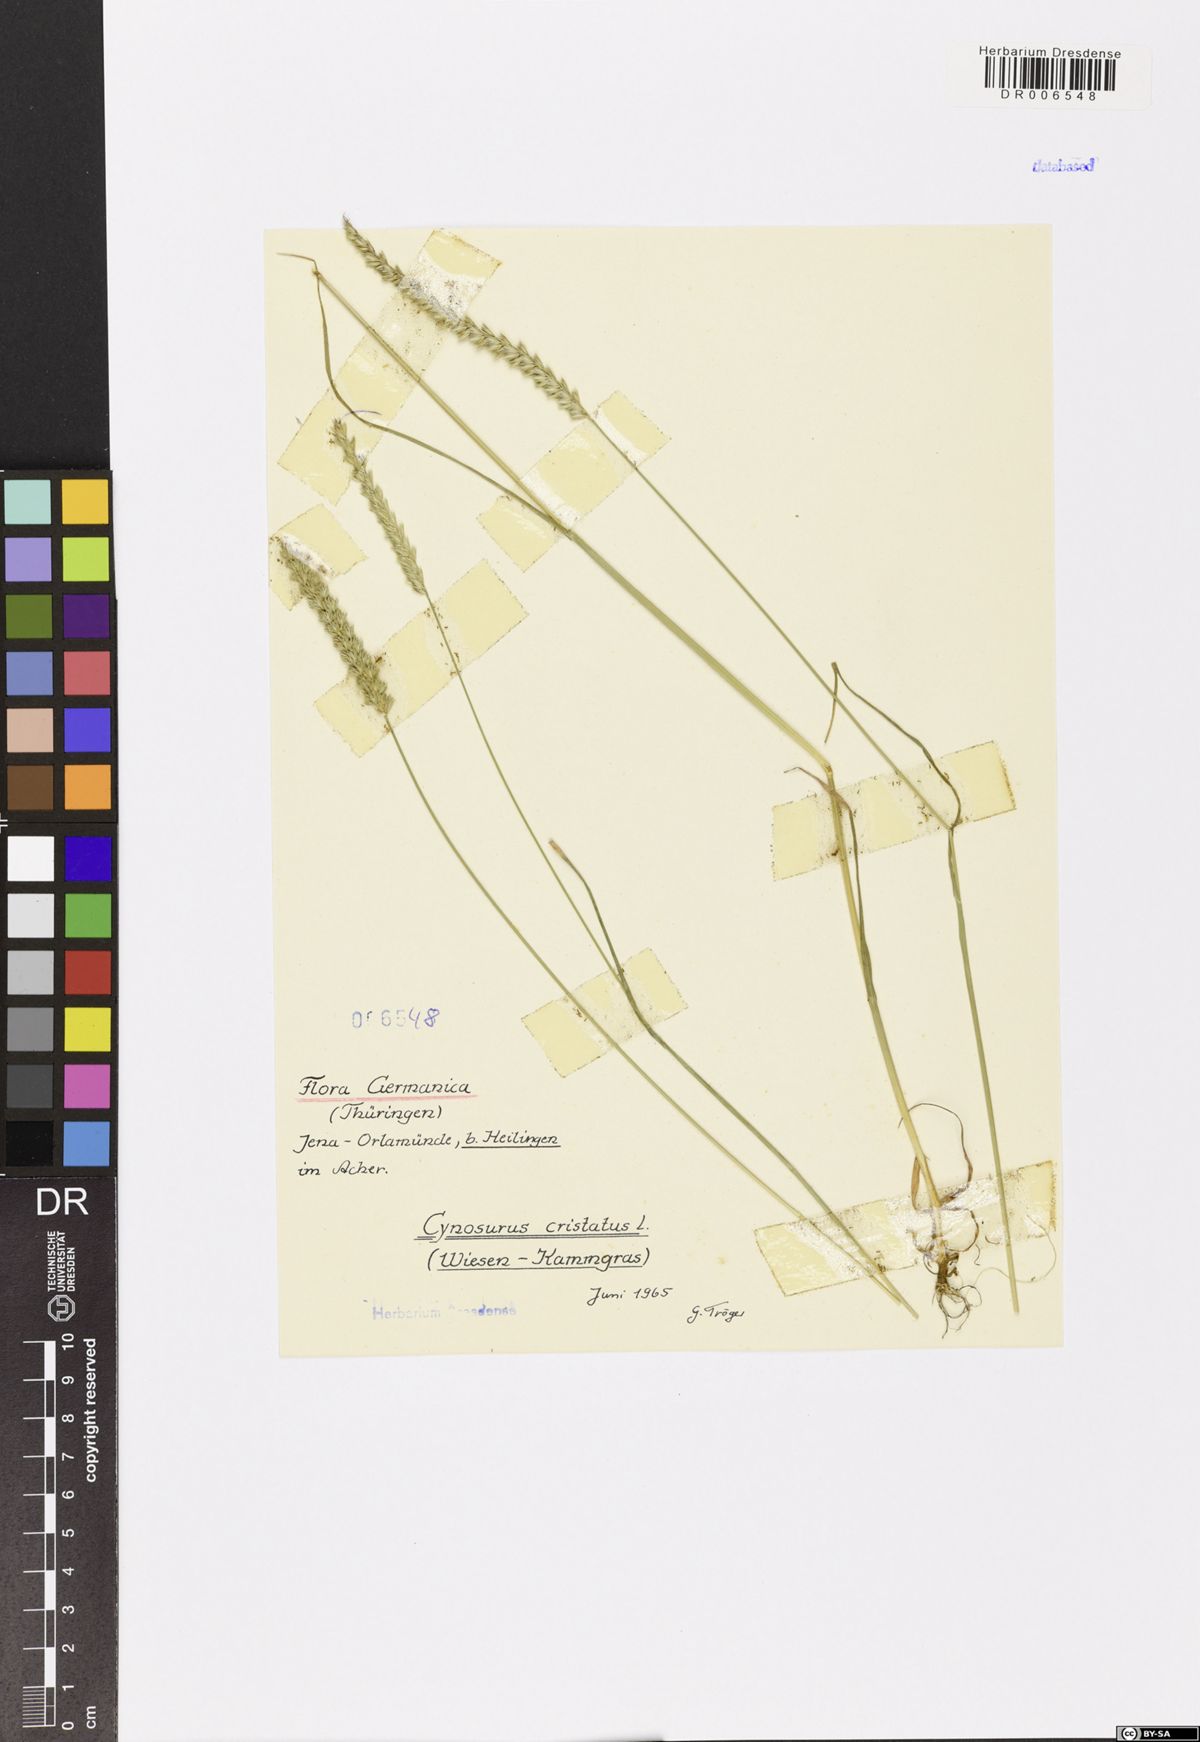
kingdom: Plantae
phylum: Tracheophyta
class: Liliopsida
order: Poales
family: Poaceae
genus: Cynosurus
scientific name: Cynosurus cristatus
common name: Crested dog's-tail
